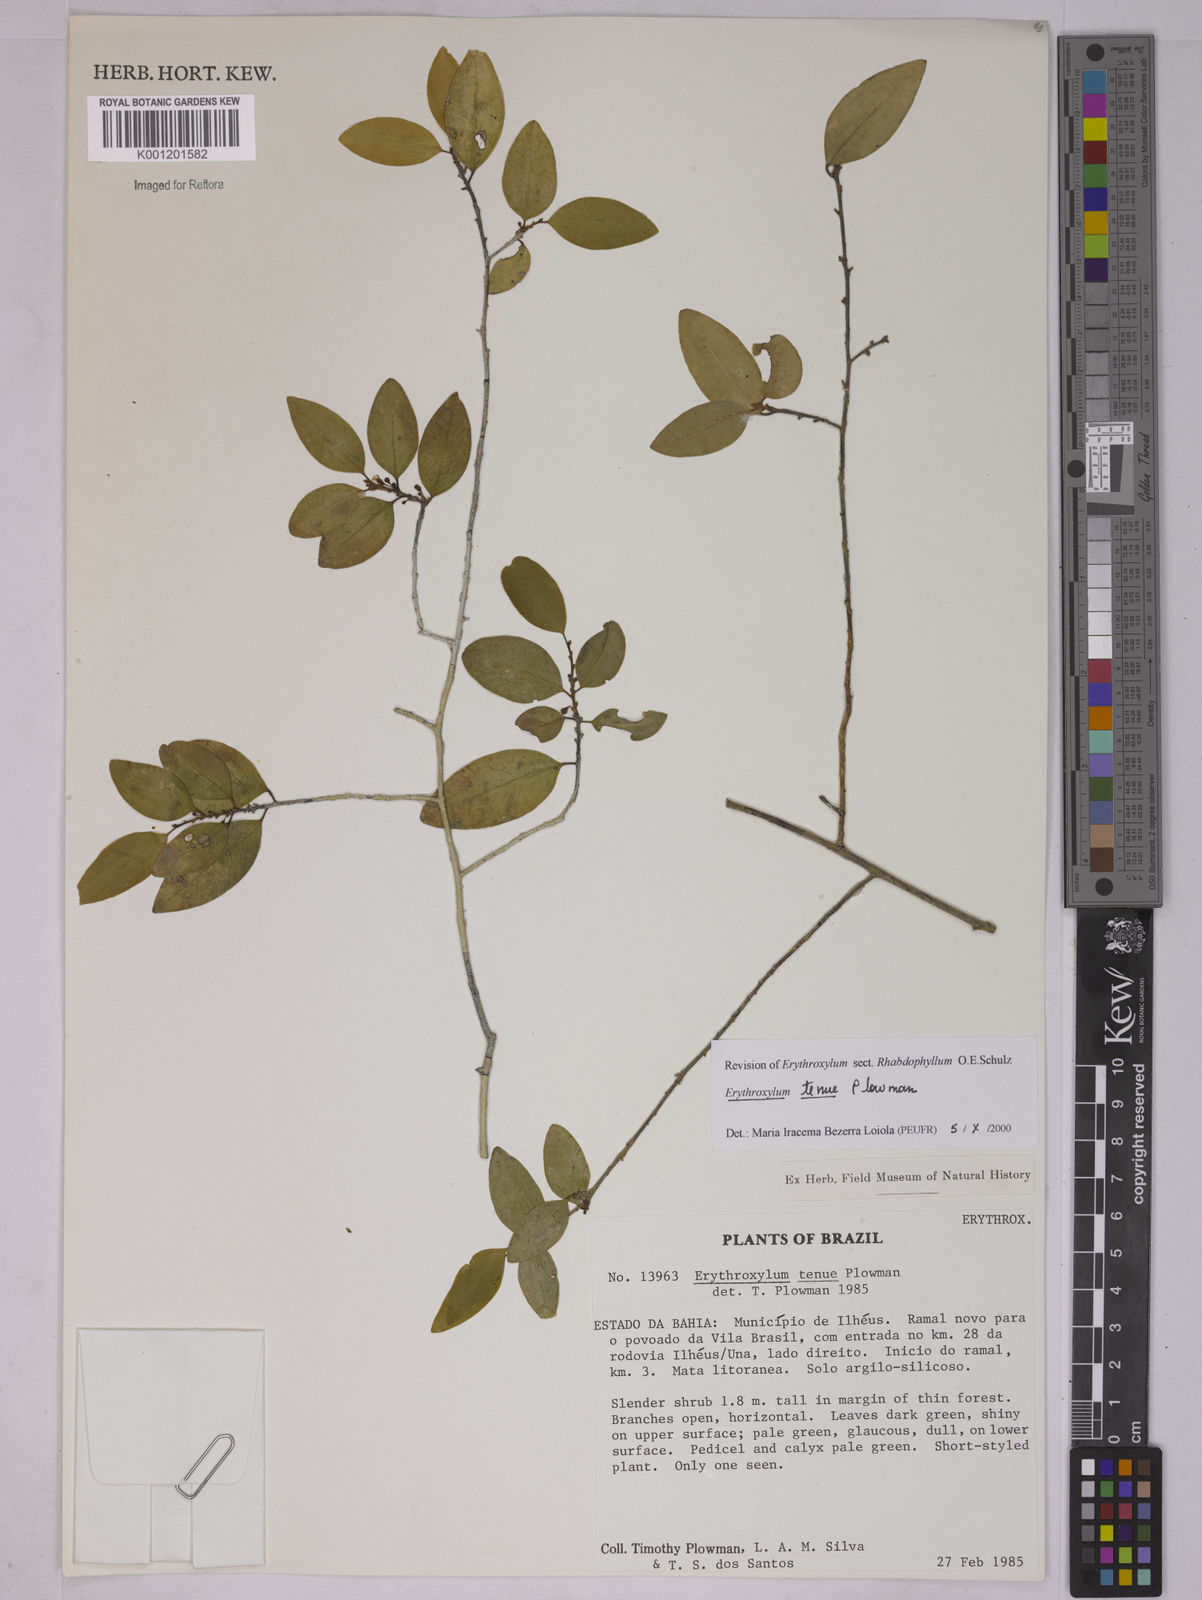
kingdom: Plantae
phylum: Tracheophyta
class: Magnoliopsida
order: Malpighiales
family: Erythroxylaceae
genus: Erythroxylum
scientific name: Erythroxylum tenue
